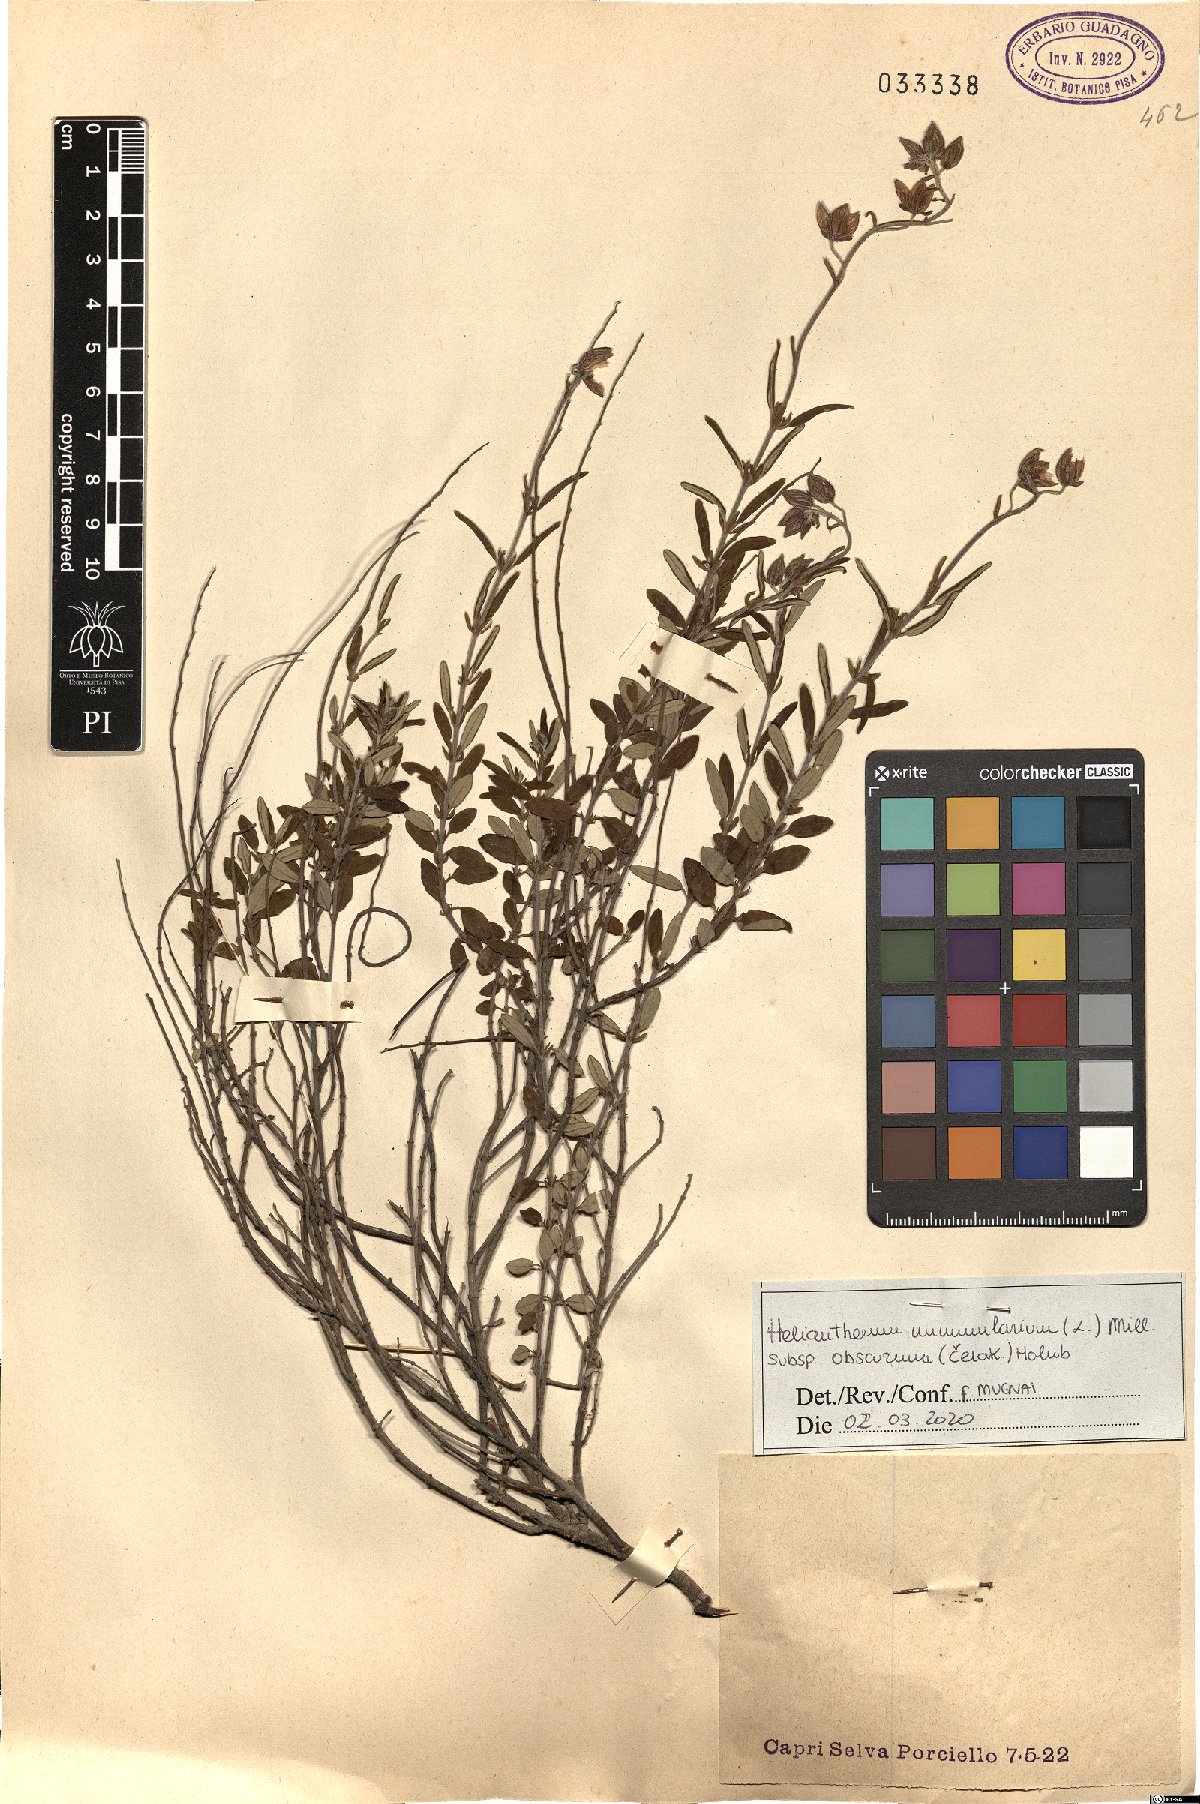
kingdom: Plantae
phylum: Tracheophyta
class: Magnoliopsida
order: Malvales
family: Cistaceae
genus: Helianthemum
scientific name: Helianthemum nummularium
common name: Common rock-rose
